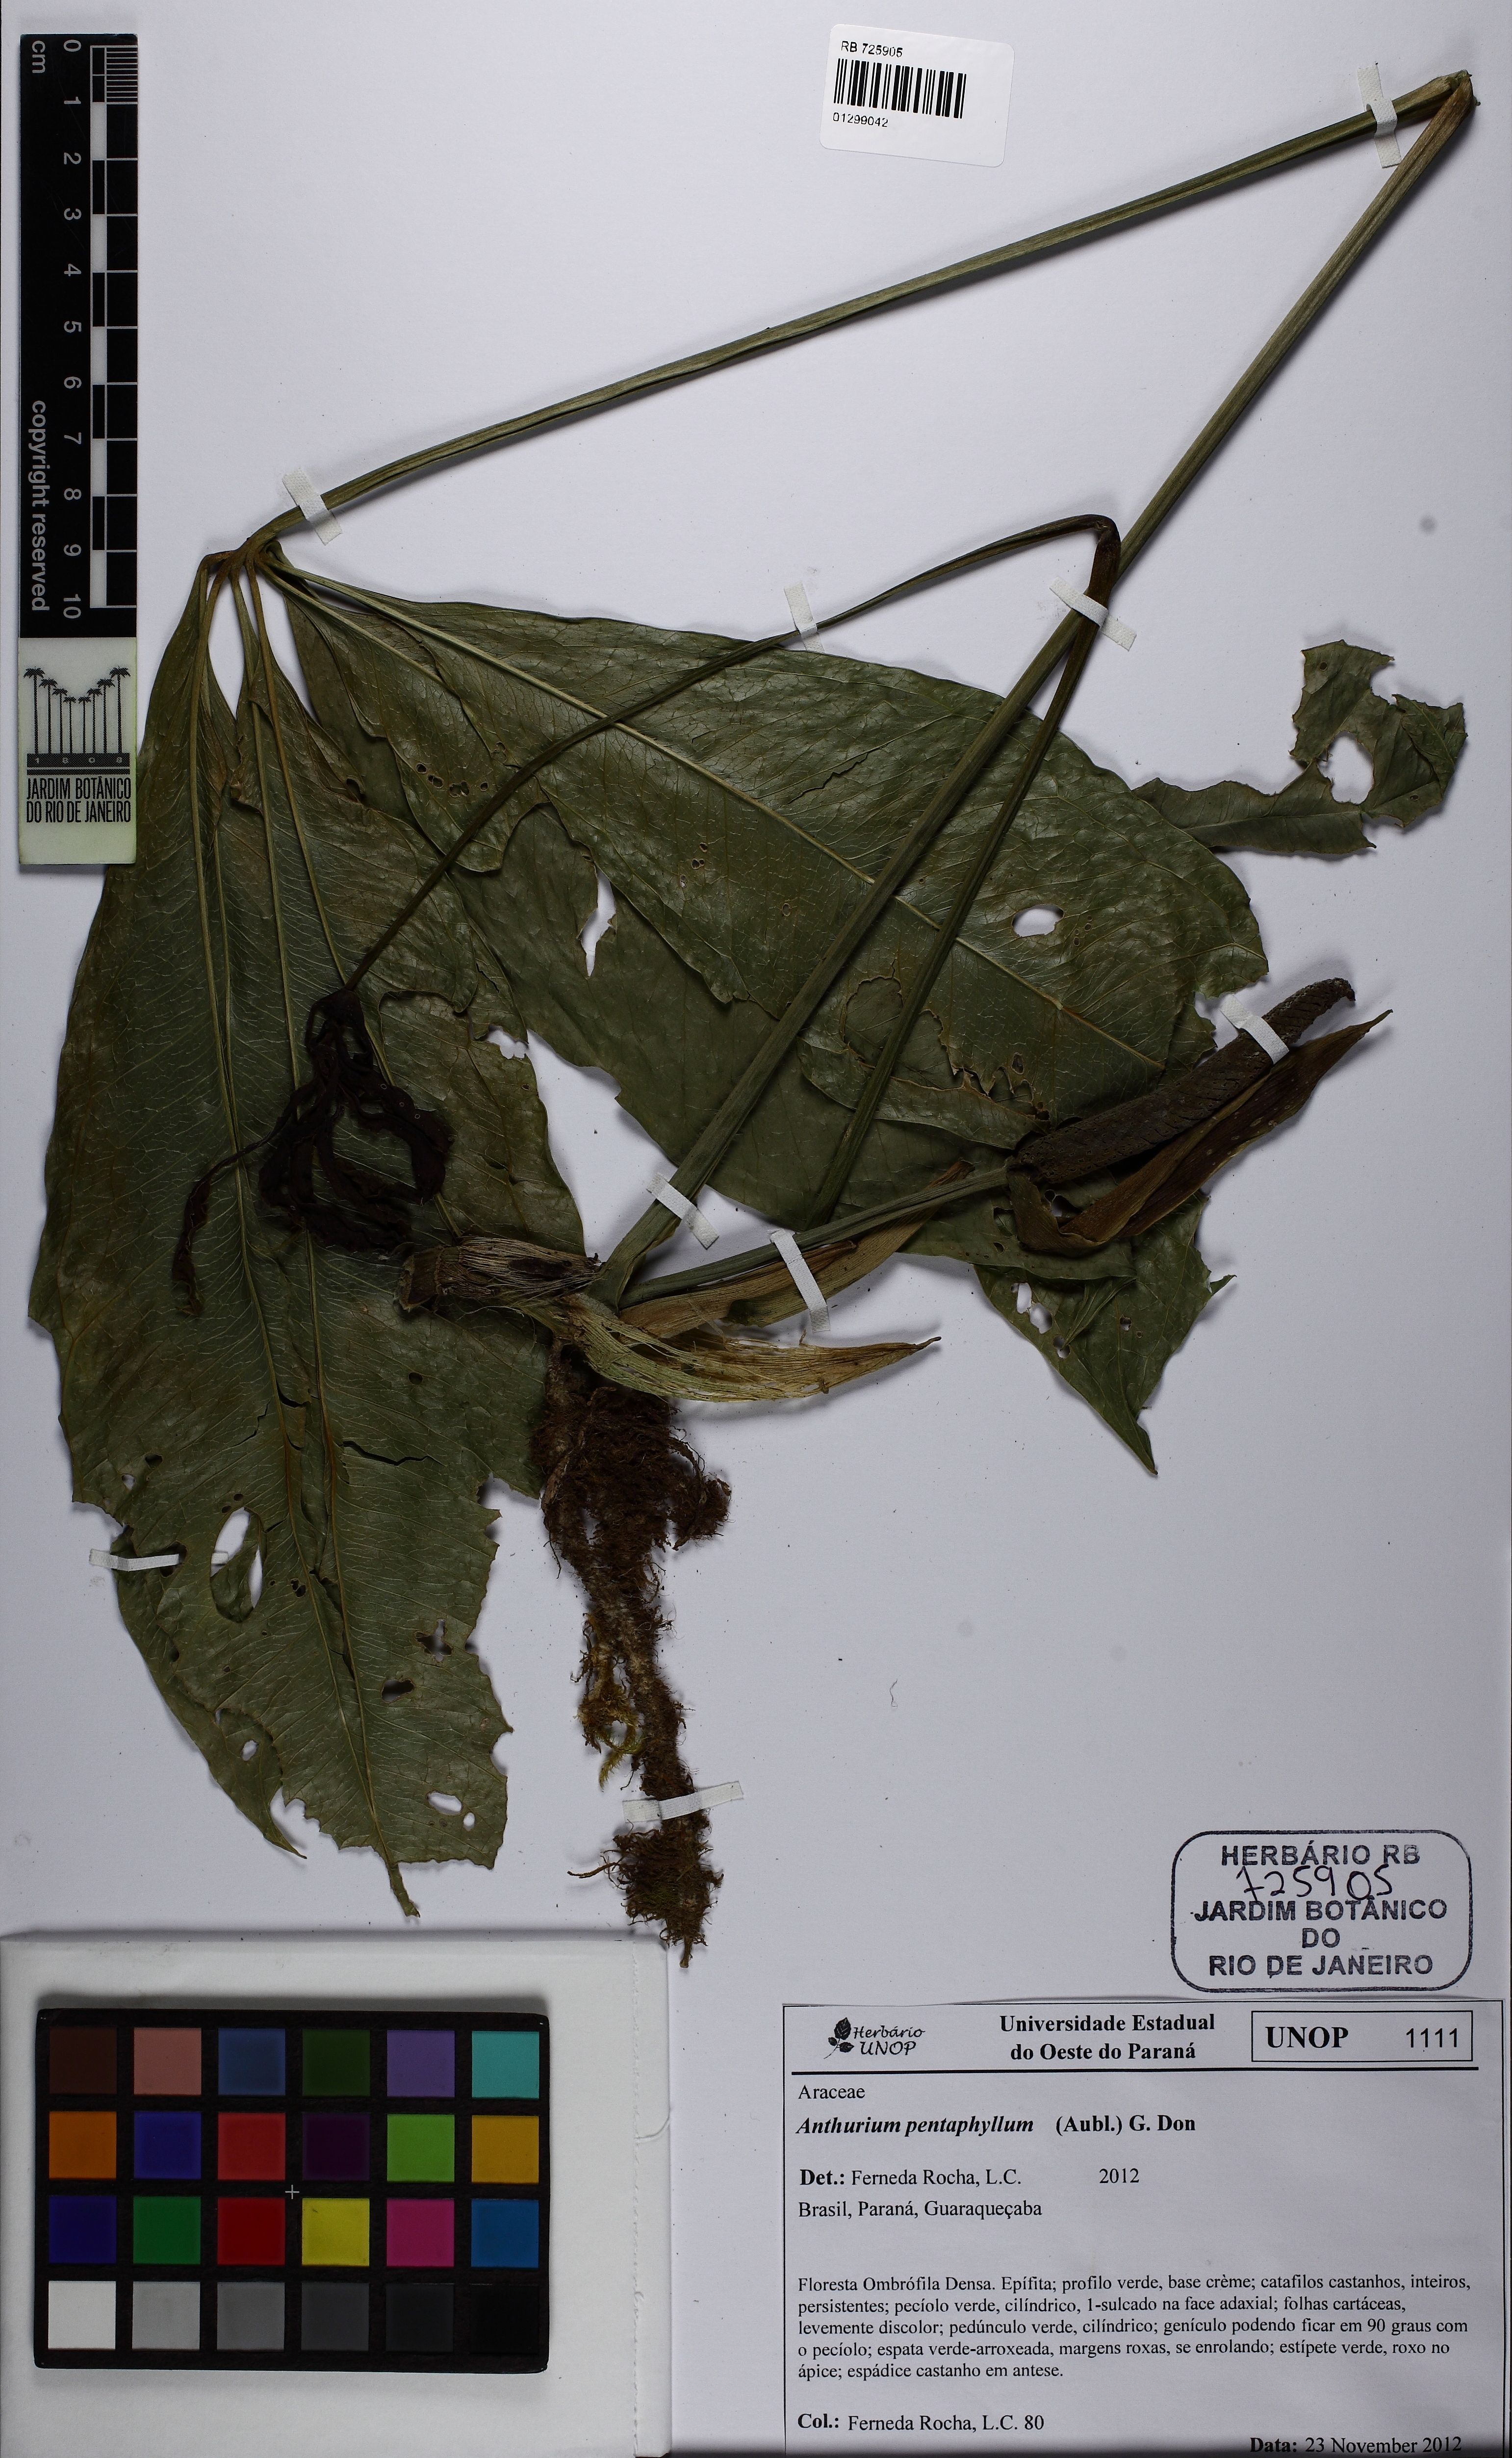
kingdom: Plantae
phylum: Tracheophyta
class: Liliopsida
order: Alismatales
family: Araceae
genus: Anthurium
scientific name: Anthurium pentaphyllum
